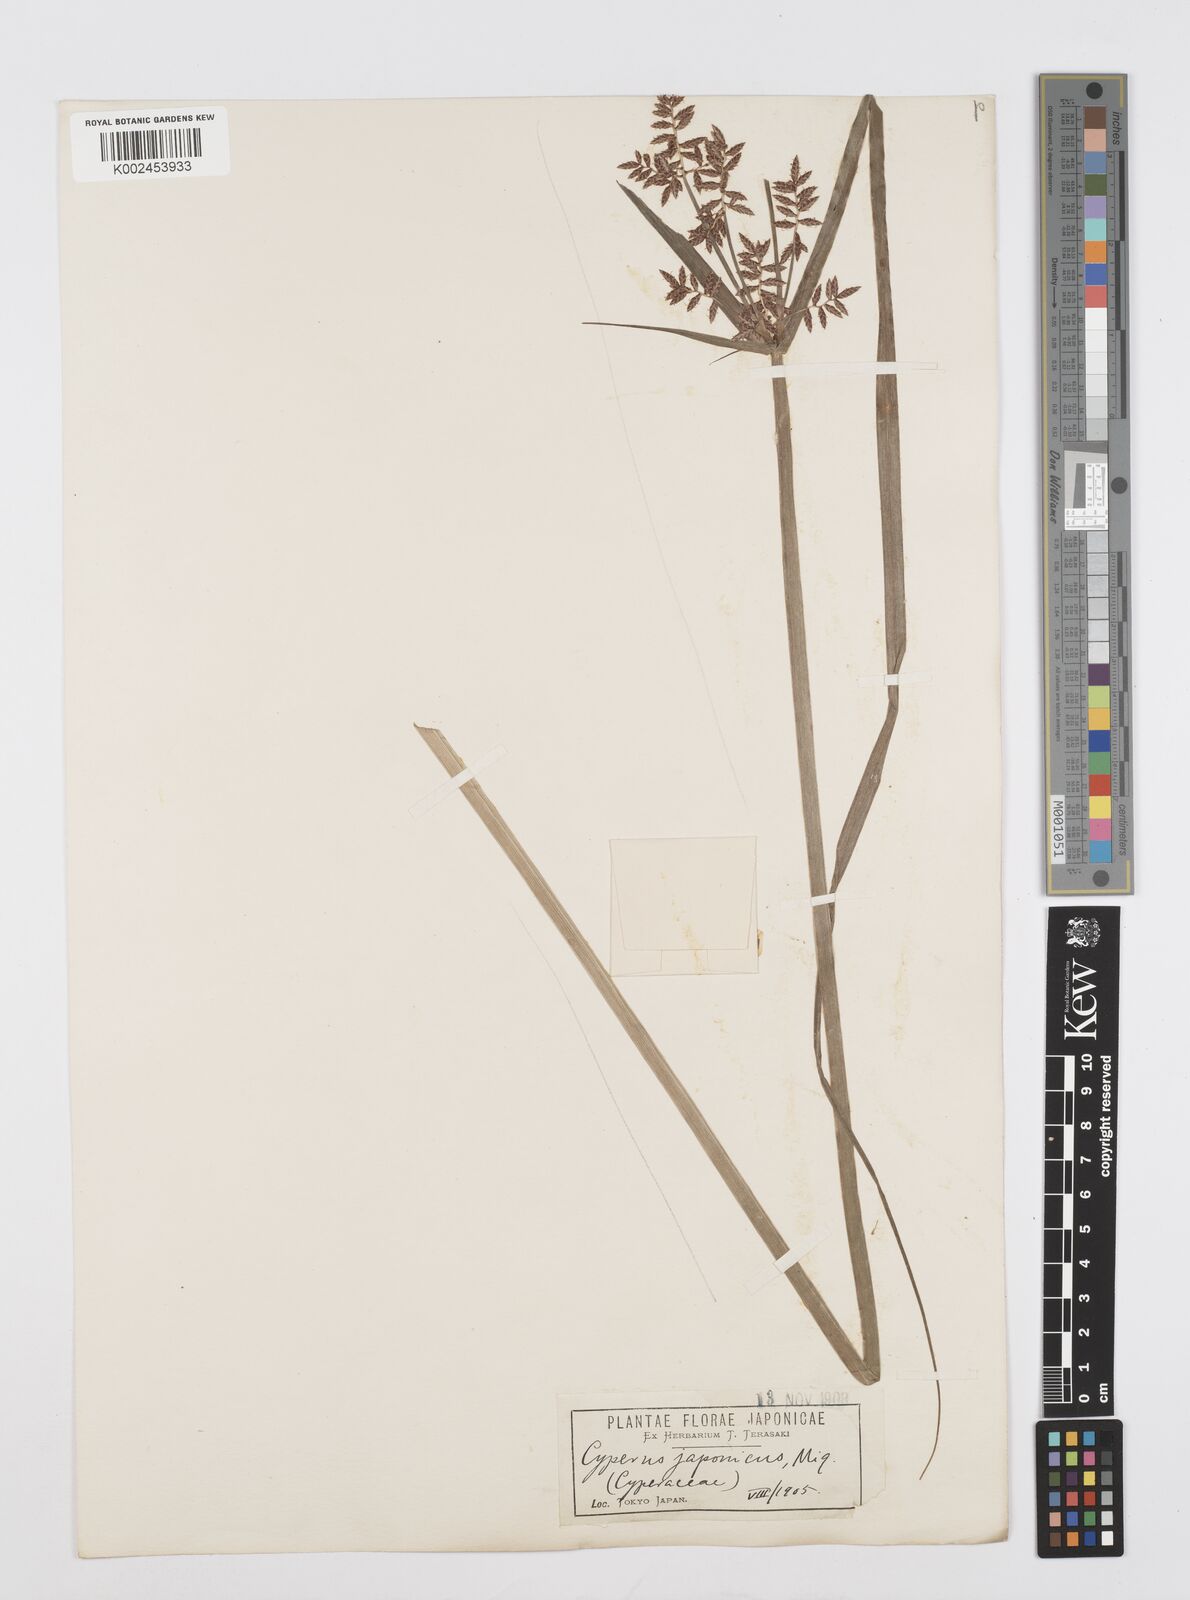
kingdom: Plantae
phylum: Tracheophyta
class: Liliopsida
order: Poales
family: Cyperaceae
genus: Cyperus
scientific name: Cyperus sanguinolentus
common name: Purpleglume flatsedge
